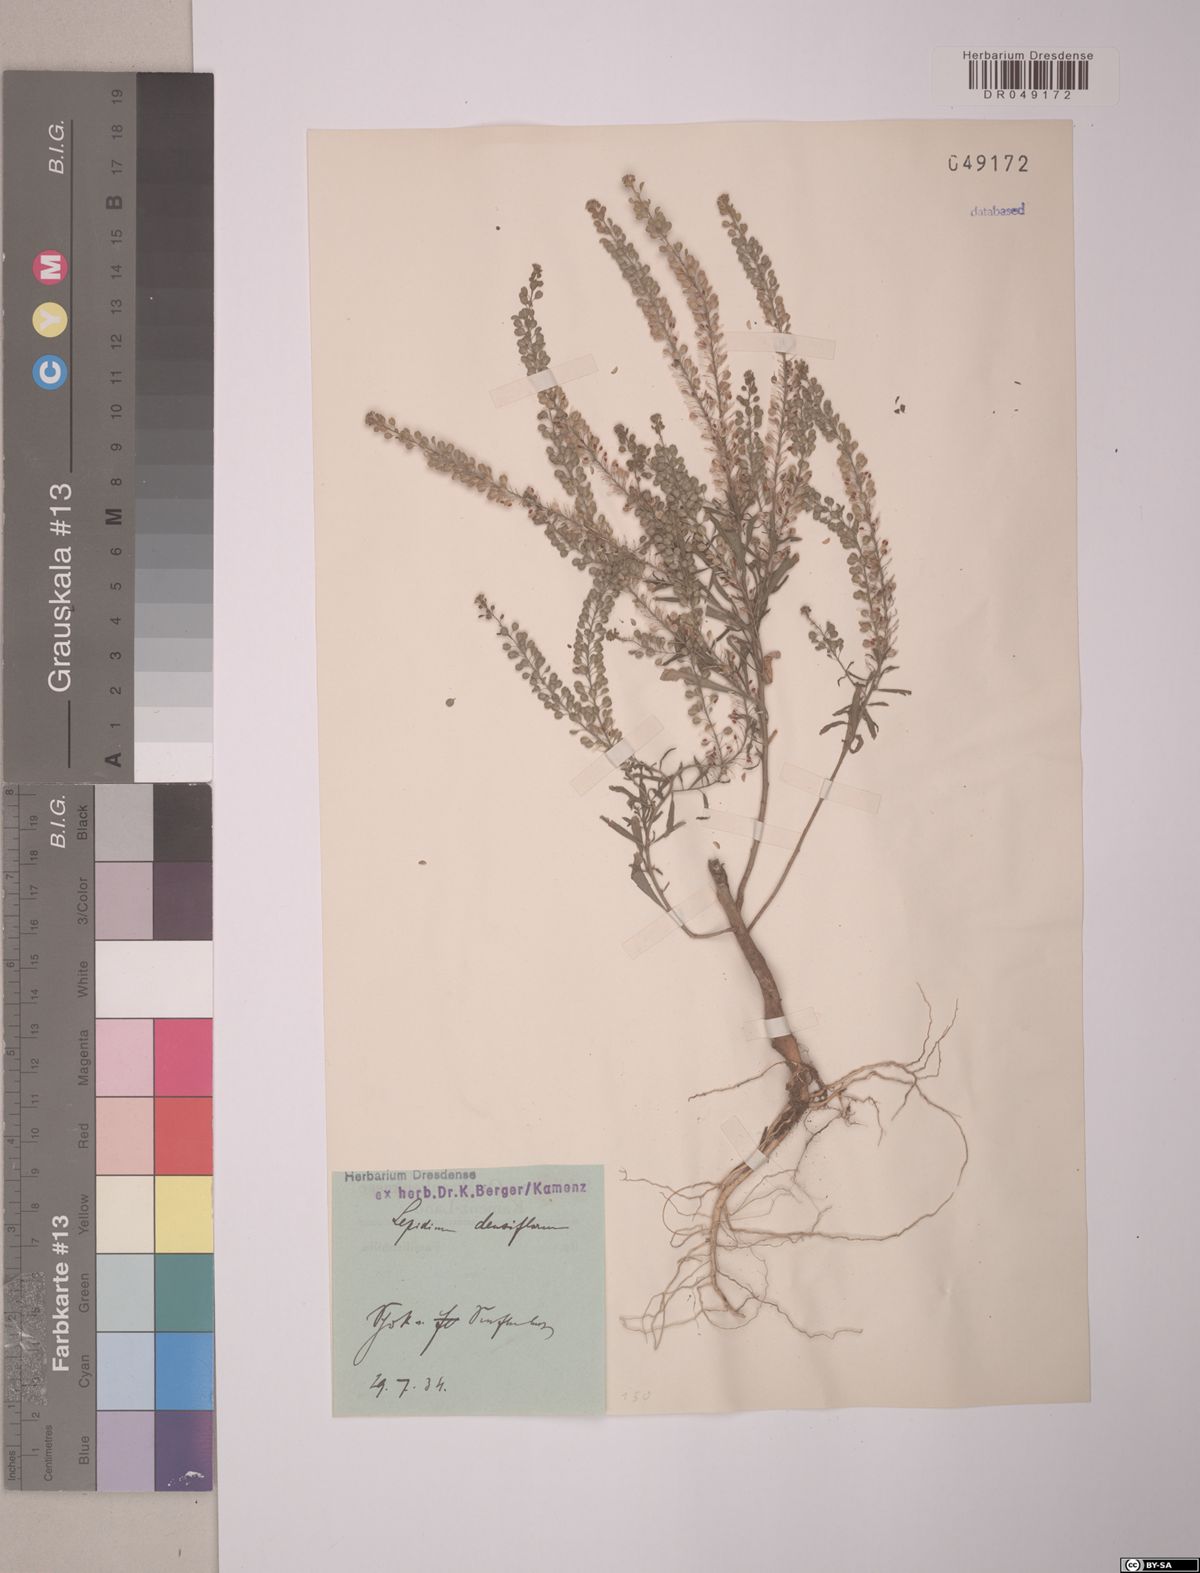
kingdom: Plantae
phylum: Tracheophyta
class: Magnoliopsida
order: Brassicales
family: Brassicaceae
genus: Lepidium
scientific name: Lepidium densiflorum
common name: Miner's pepperwort
